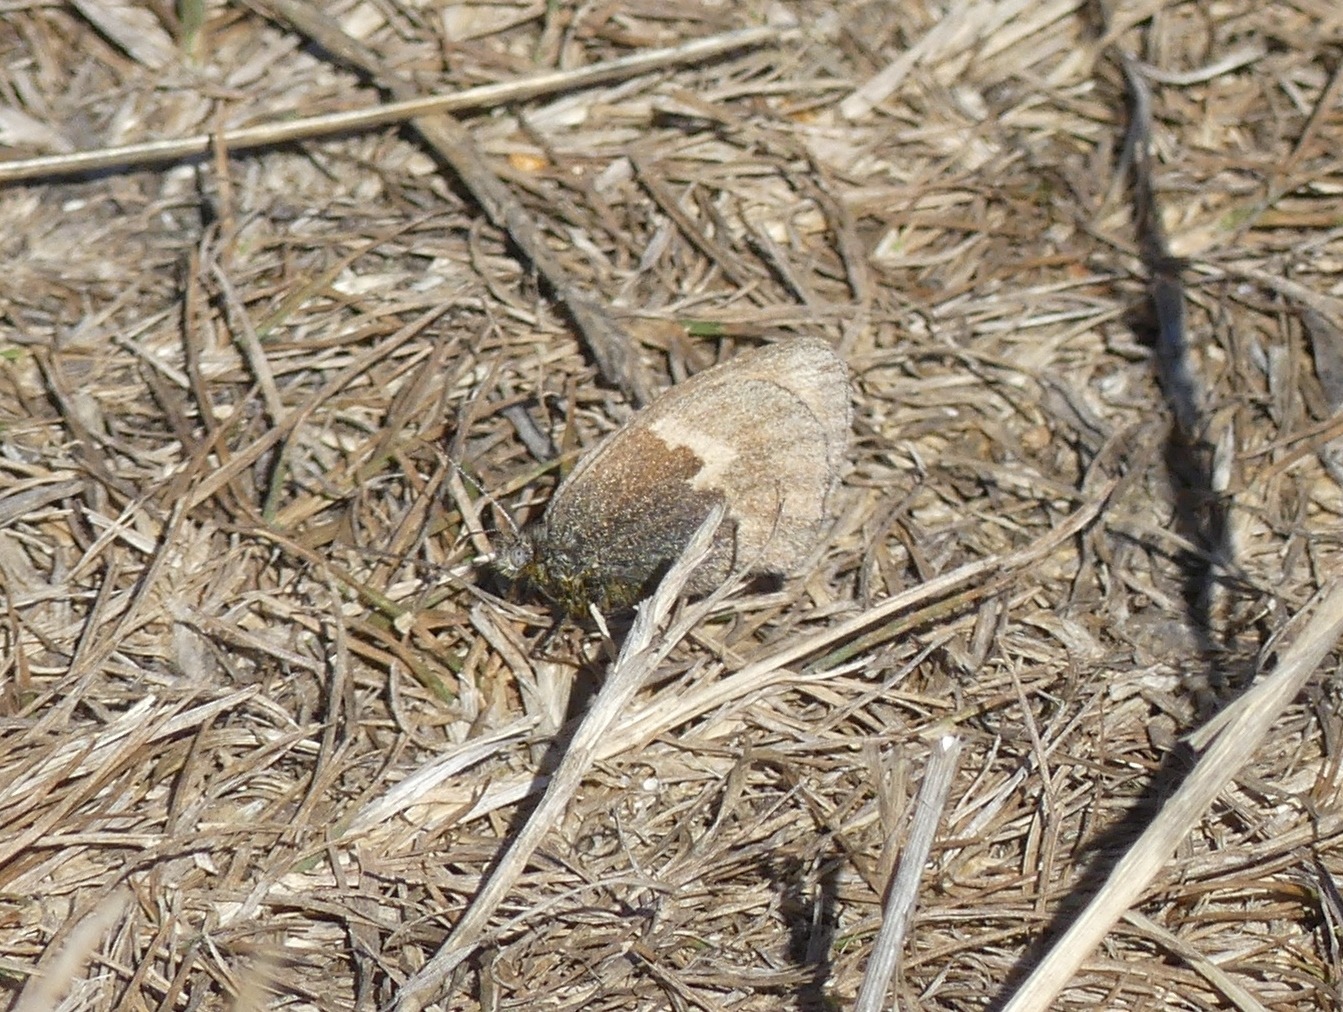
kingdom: Animalia
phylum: Arthropoda
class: Insecta
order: Lepidoptera
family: Nymphalidae
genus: Coenonympha
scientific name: Coenonympha pamphilus
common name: Okkergul randøje
